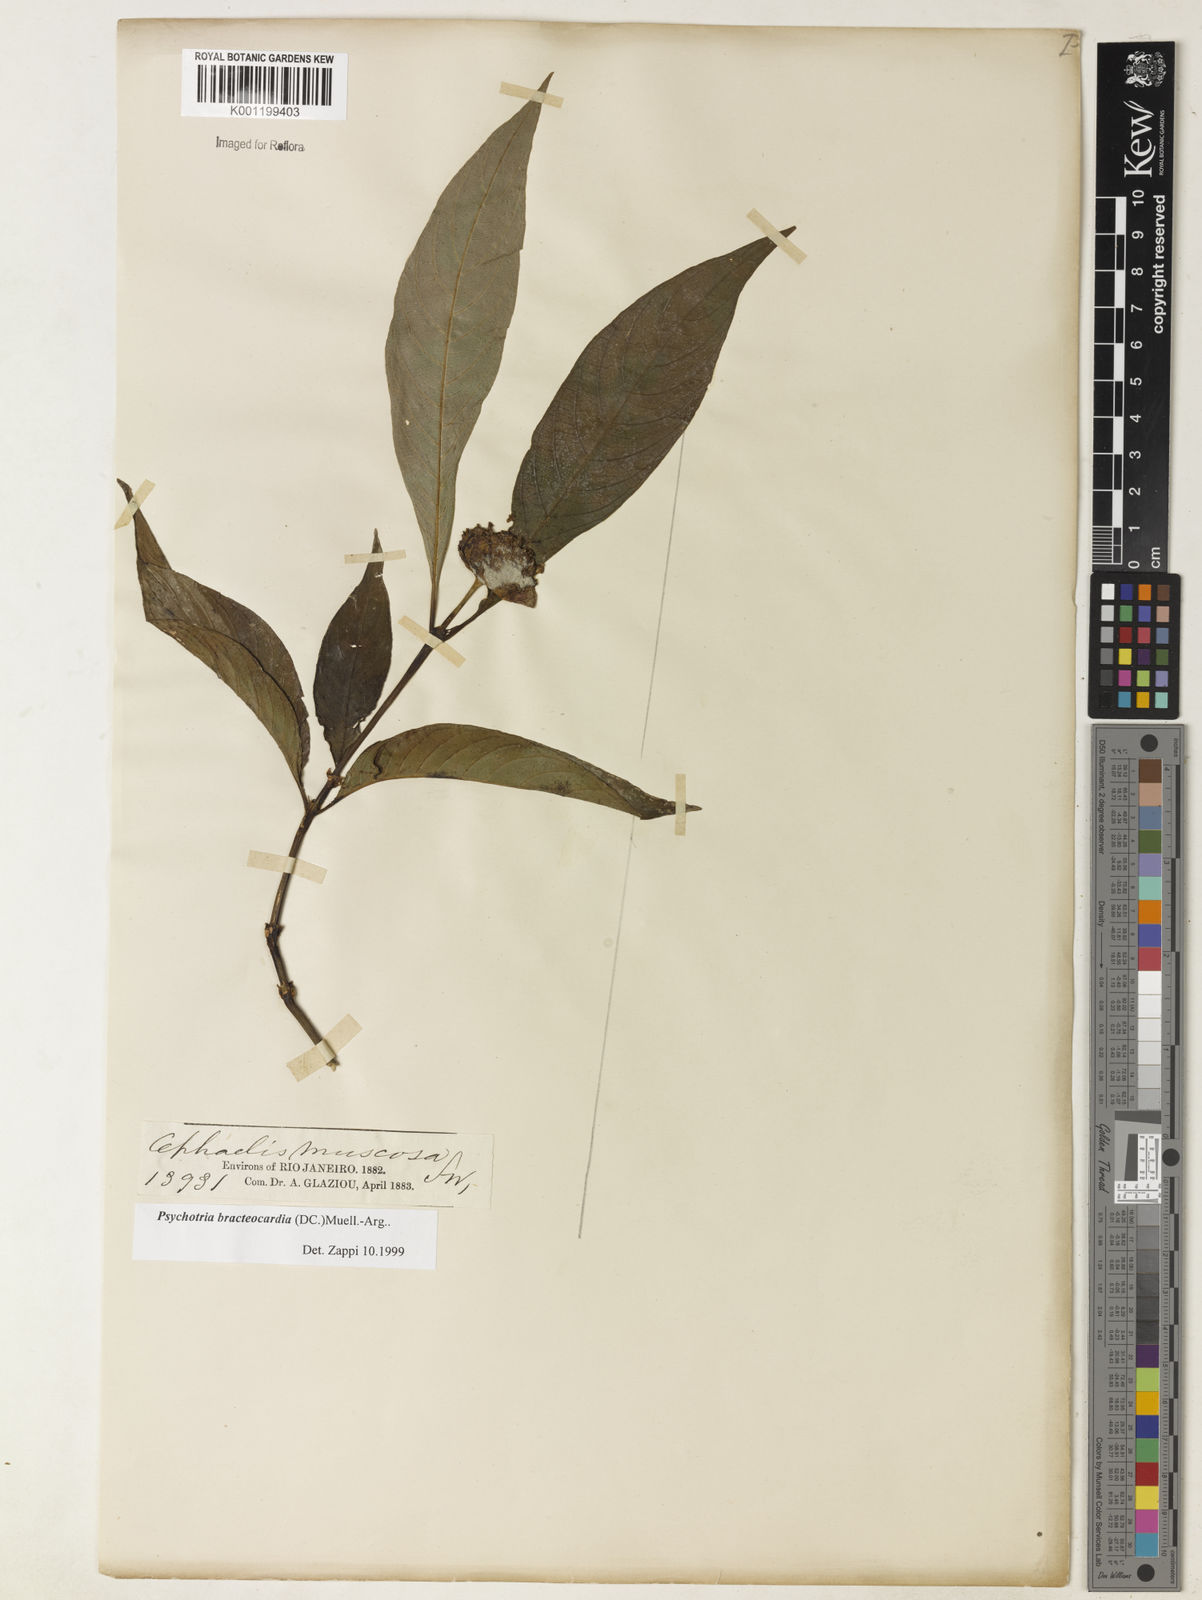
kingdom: Plantae
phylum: Tracheophyta
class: Magnoliopsida
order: Gentianales
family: Rubiaceae
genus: Psychotria
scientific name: Psychotria
